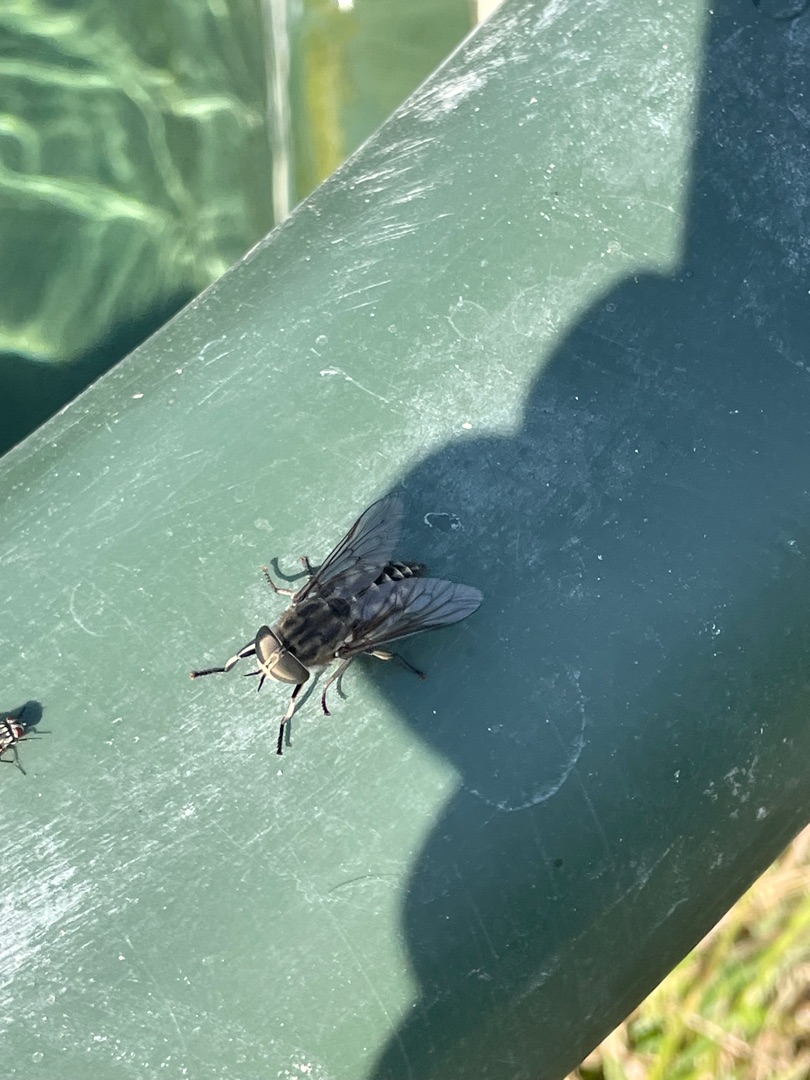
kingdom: Animalia
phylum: Arthropoda
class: Insecta
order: Diptera
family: Tabanidae
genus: Tabanus
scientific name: Tabanus autumnalis
